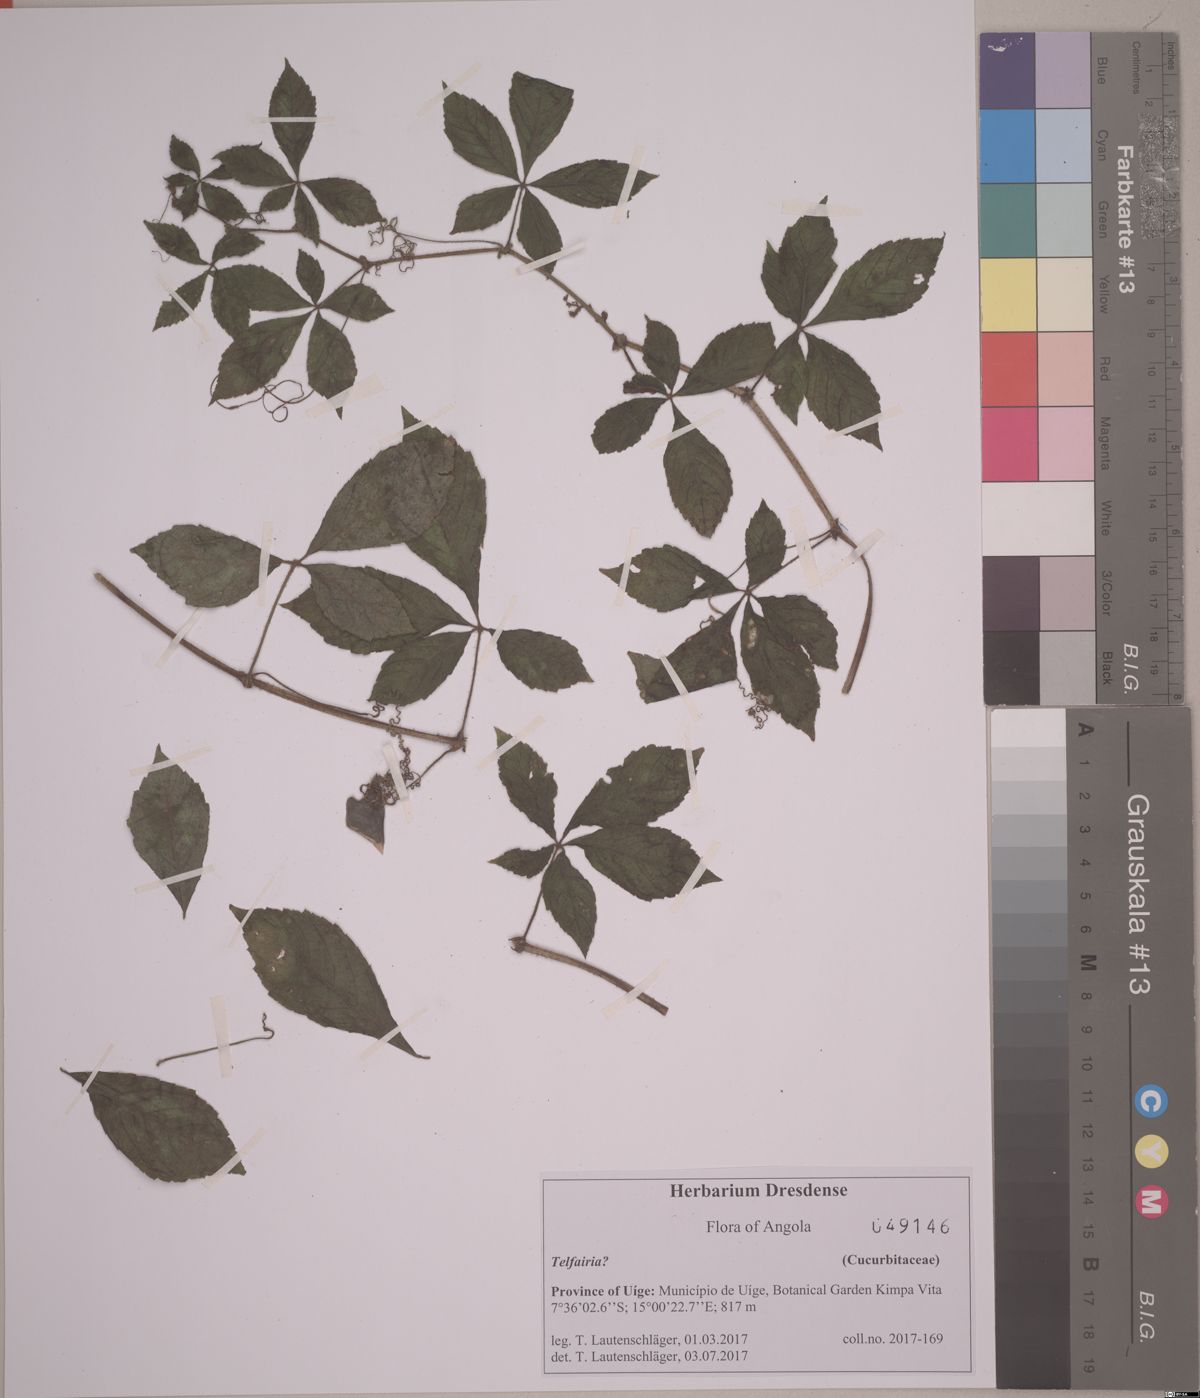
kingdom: Plantae
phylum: Tracheophyta
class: Magnoliopsida
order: Cucurbitales
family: Cucurbitaceae
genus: Telfairia
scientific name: Telfairia
